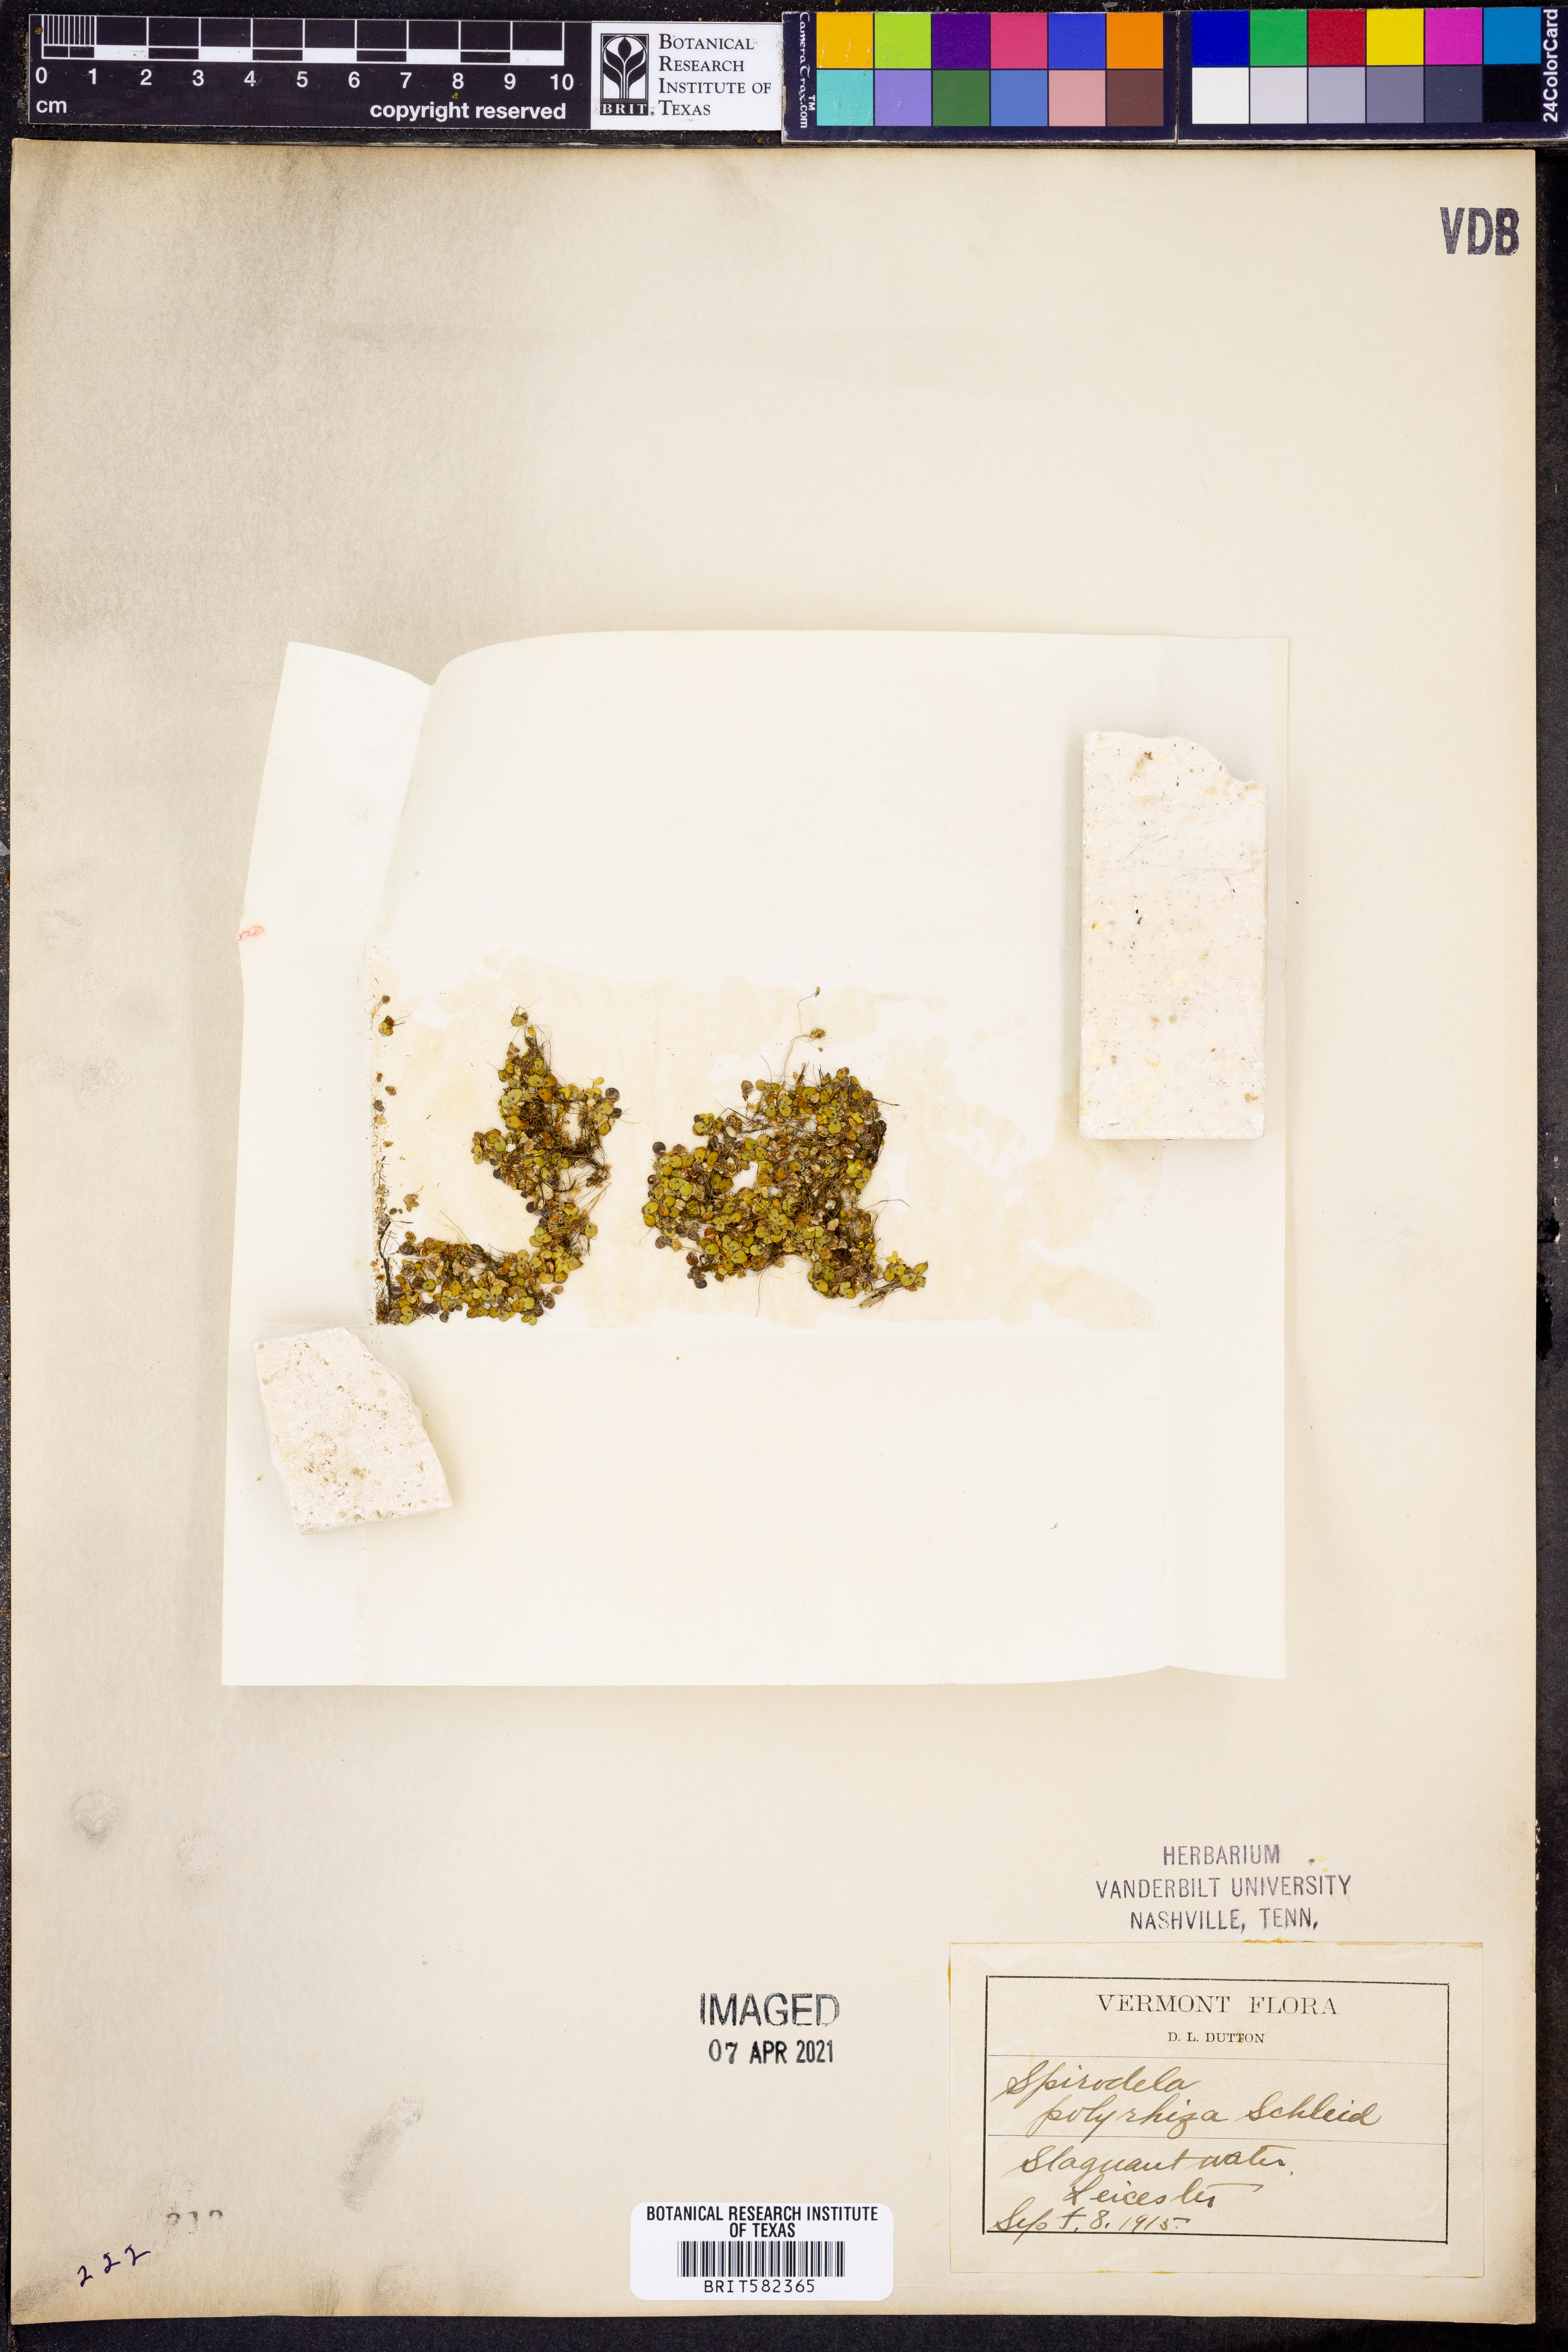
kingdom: Plantae
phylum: Tracheophyta
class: Liliopsida
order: Alismatales
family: Araceae
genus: Spirodela
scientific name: Spirodela polyrhiza
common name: Great duckweed
